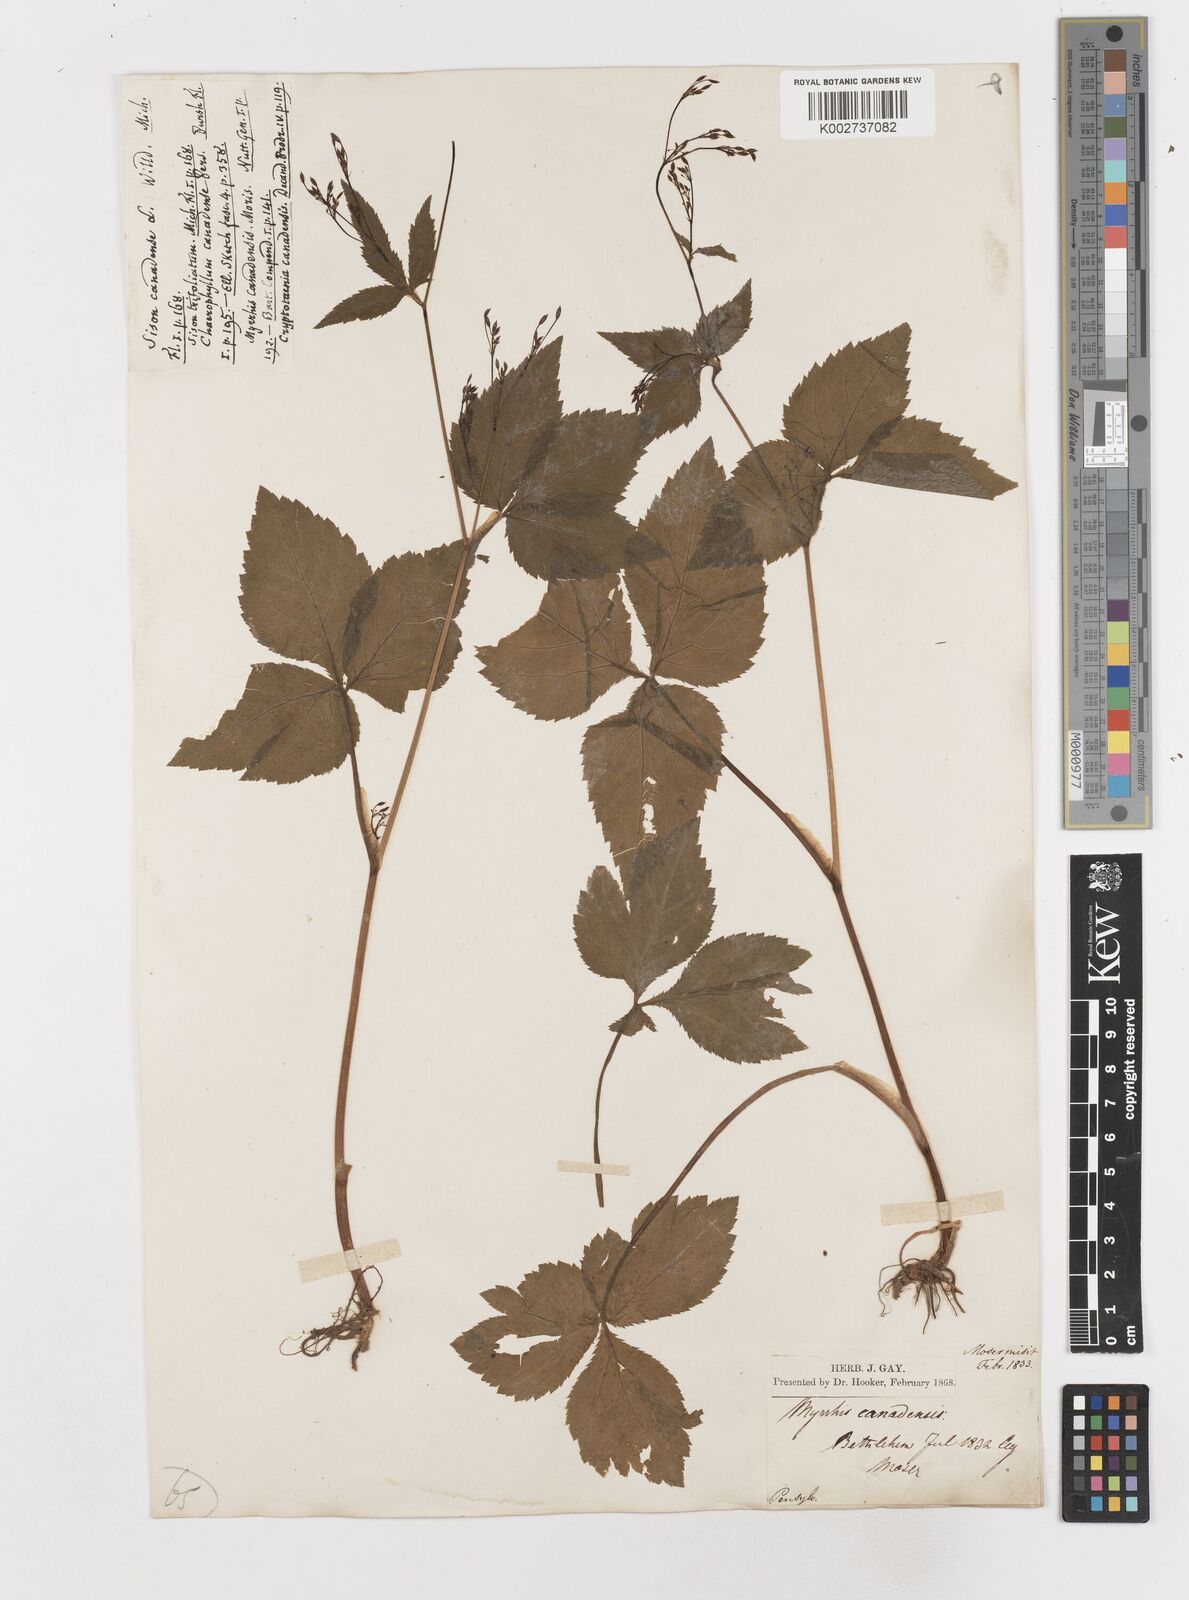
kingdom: Plantae
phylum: Tracheophyta
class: Magnoliopsida
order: Apiales
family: Apiaceae
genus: Cryptotaenia
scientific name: Cryptotaenia canadensis
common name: Honewort
